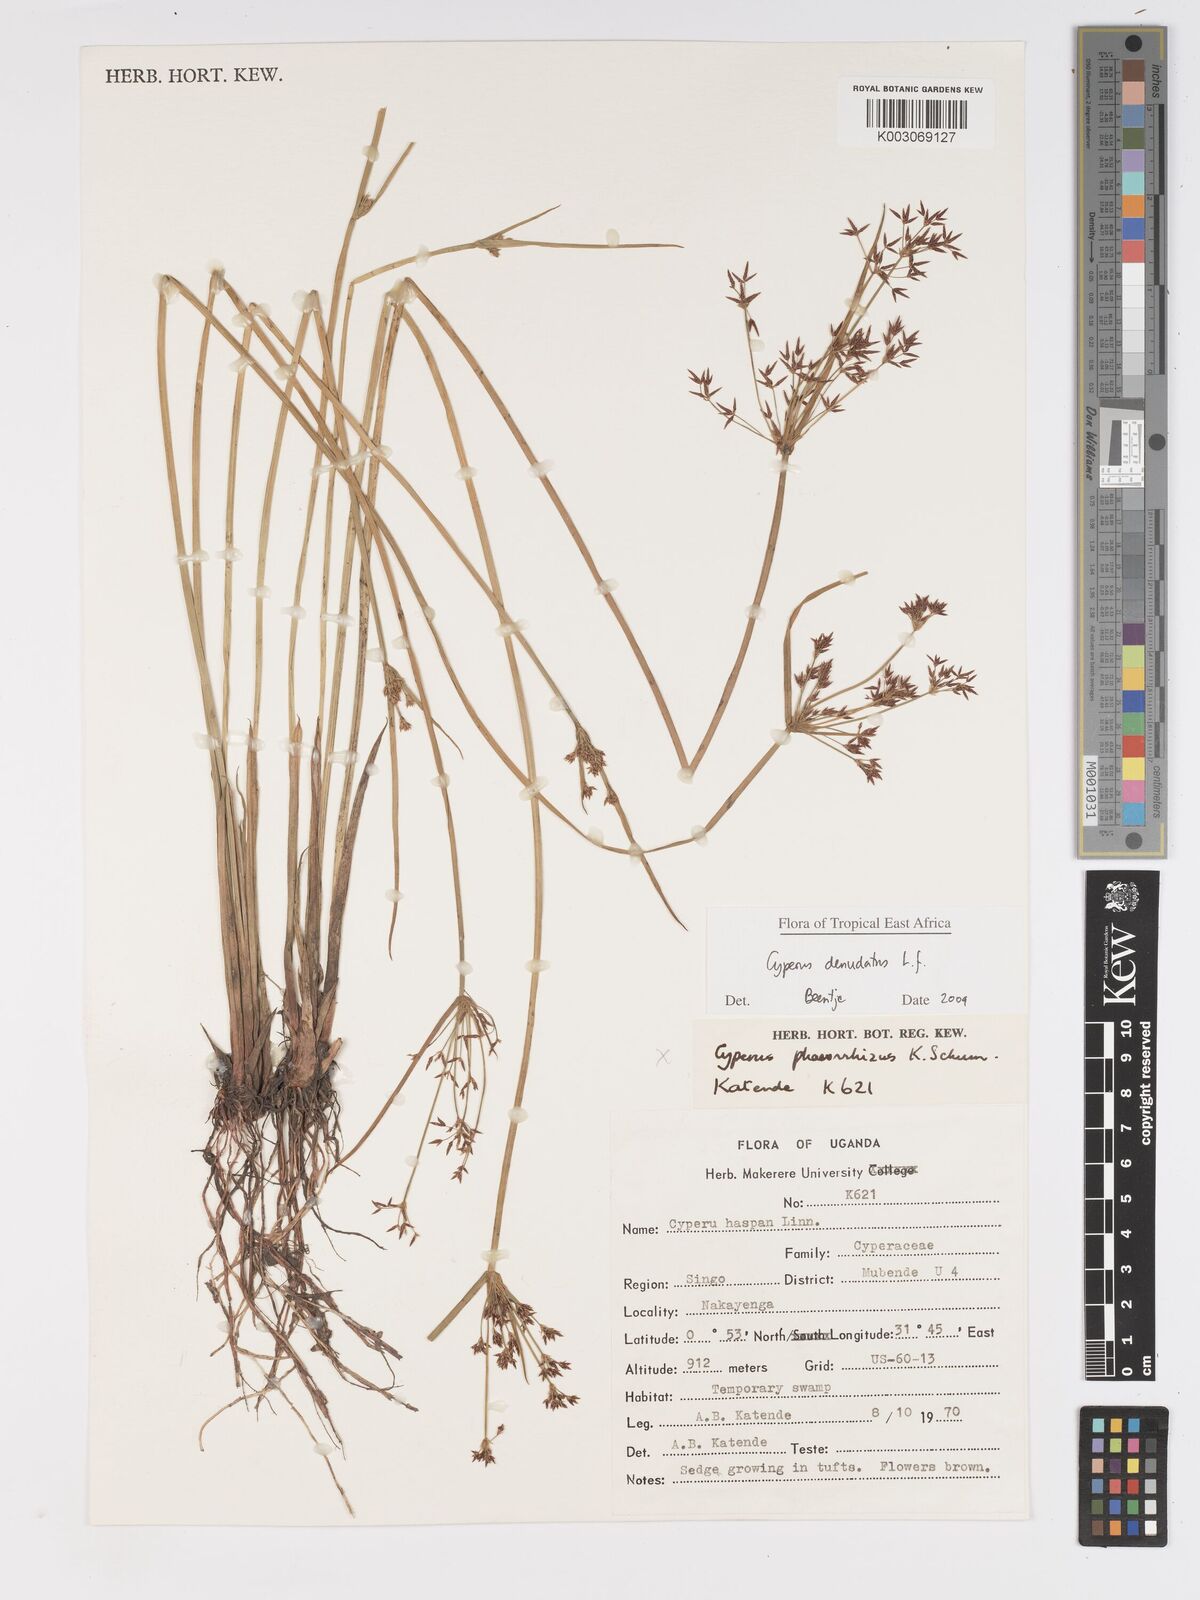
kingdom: Plantae
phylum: Tracheophyta
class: Liliopsida
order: Poales
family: Cyperaceae
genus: Cyperus
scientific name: Cyperus platycaulis
